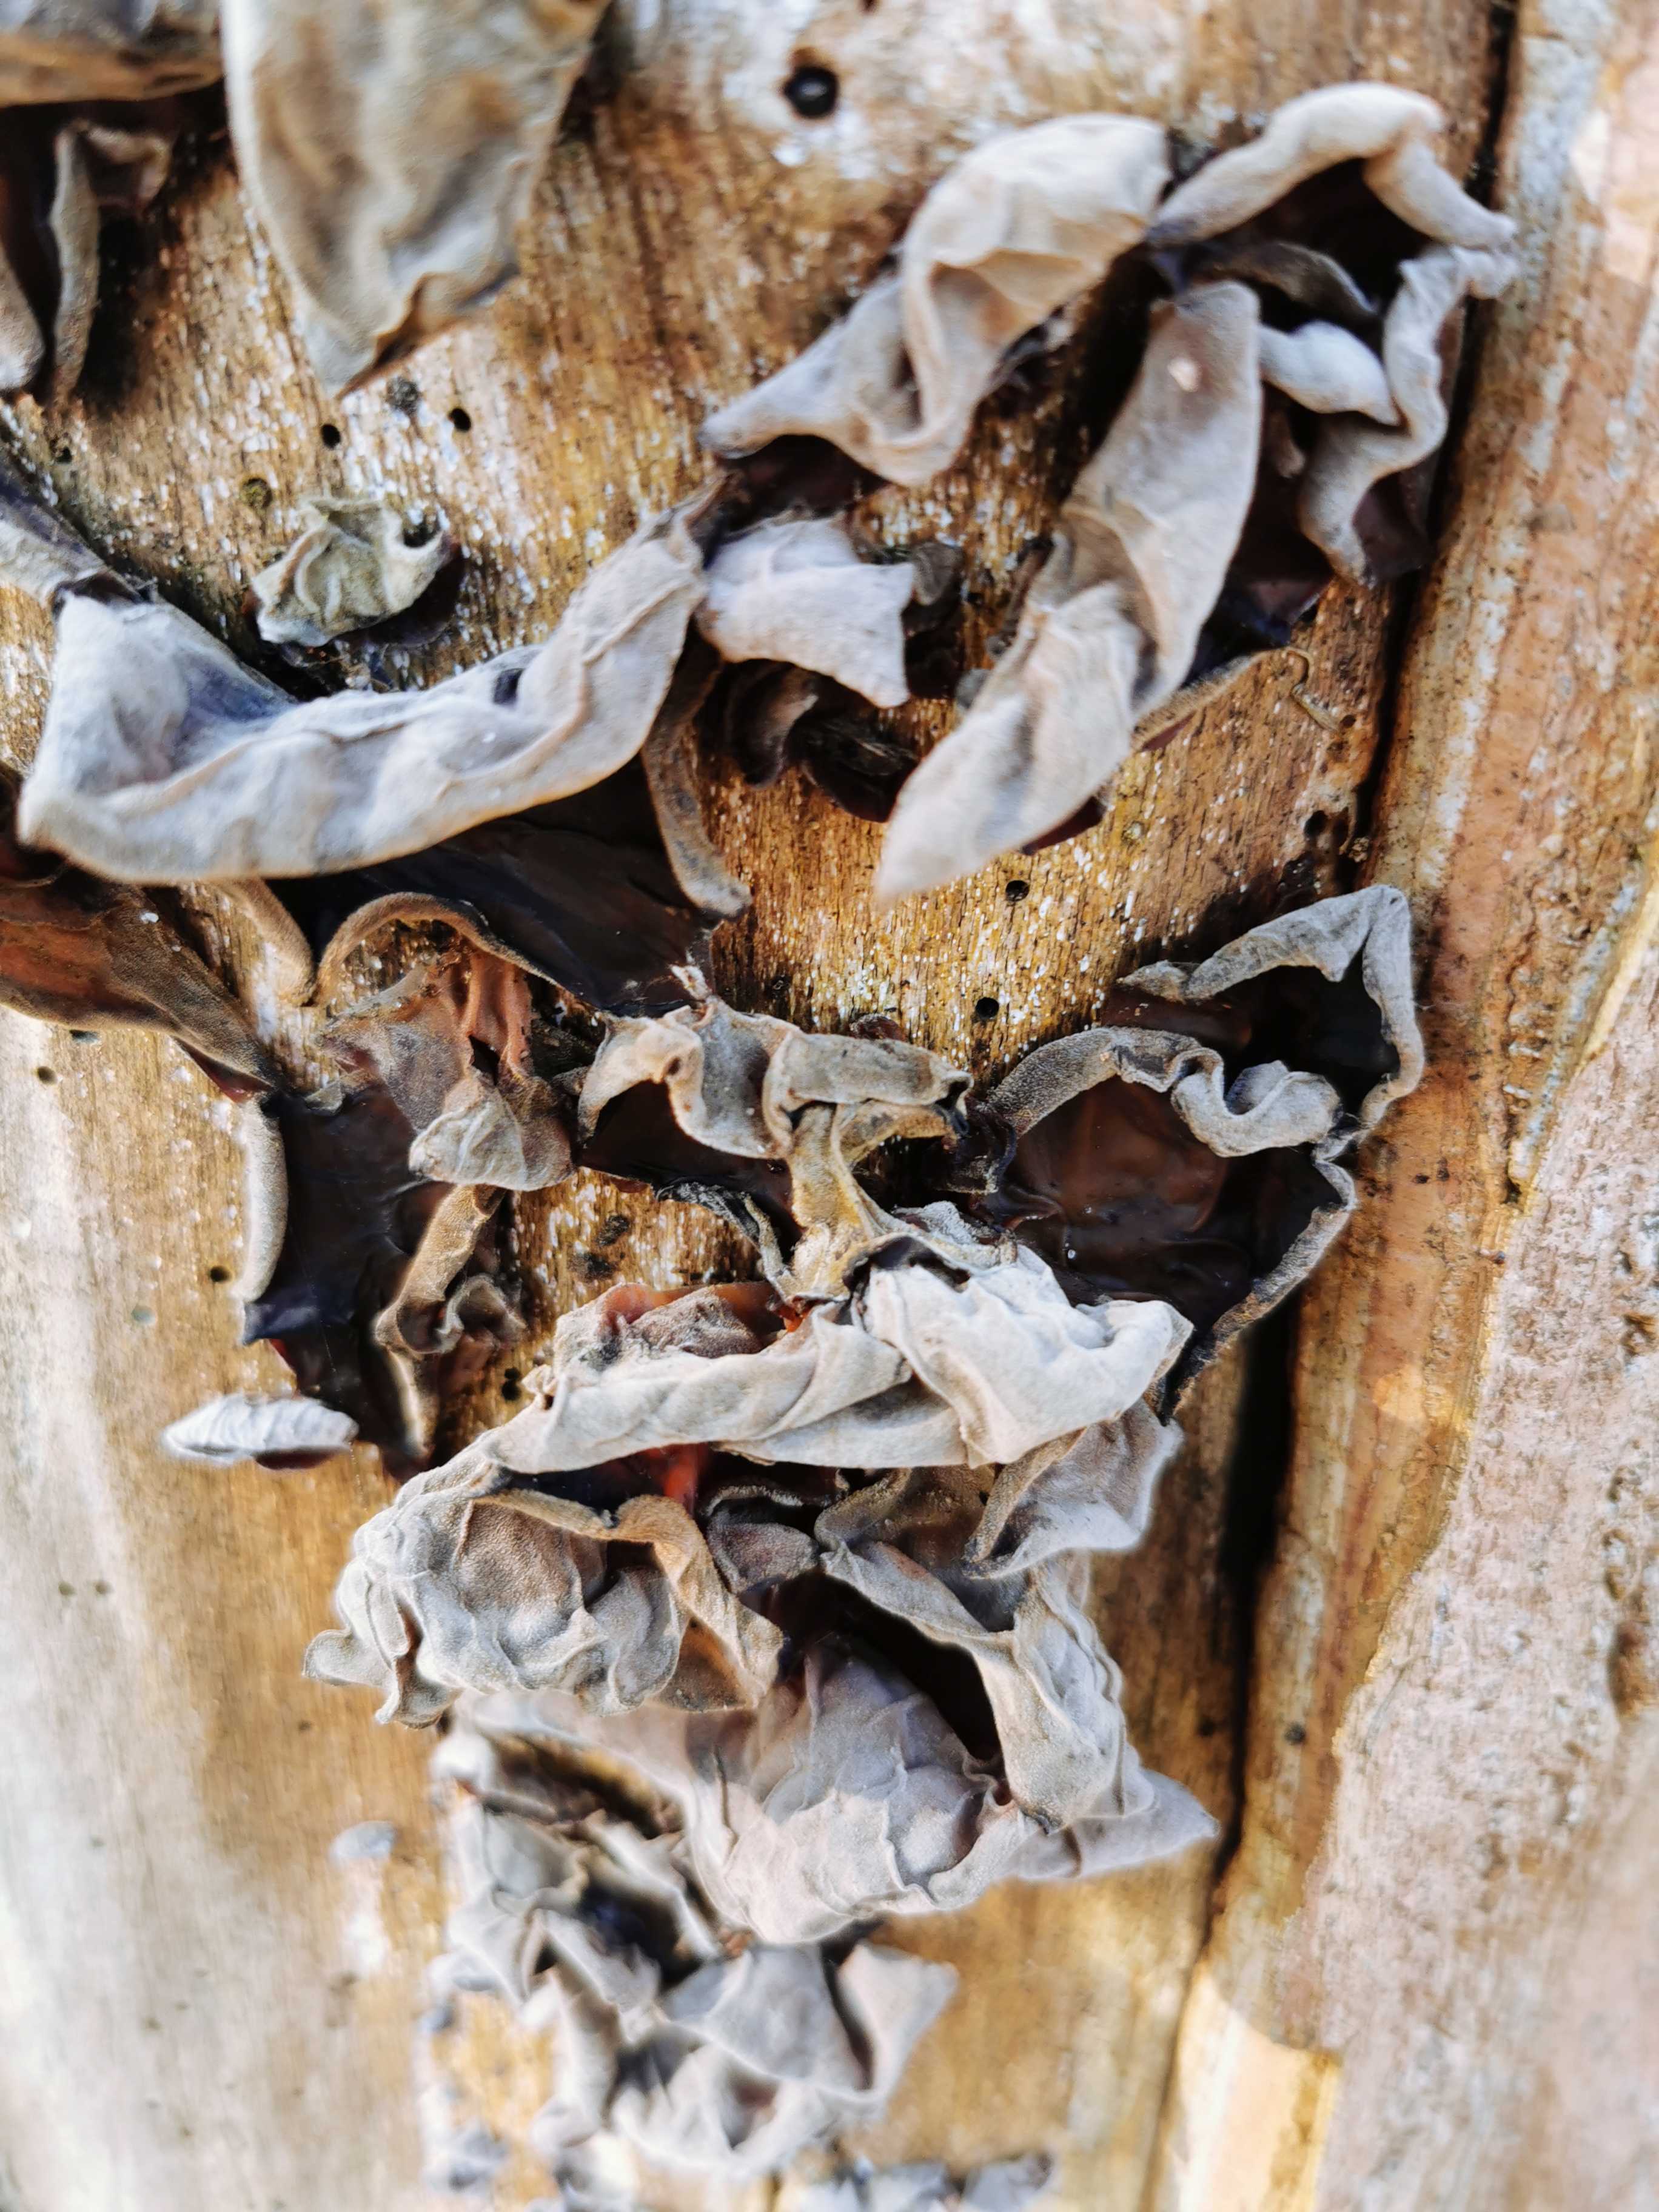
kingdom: Fungi
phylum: Basidiomycota
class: Agaricomycetes
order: Auriculariales
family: Auriculariaceae
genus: Auricularia
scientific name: Auricularia auricula-judae
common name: almindelig judasøre
